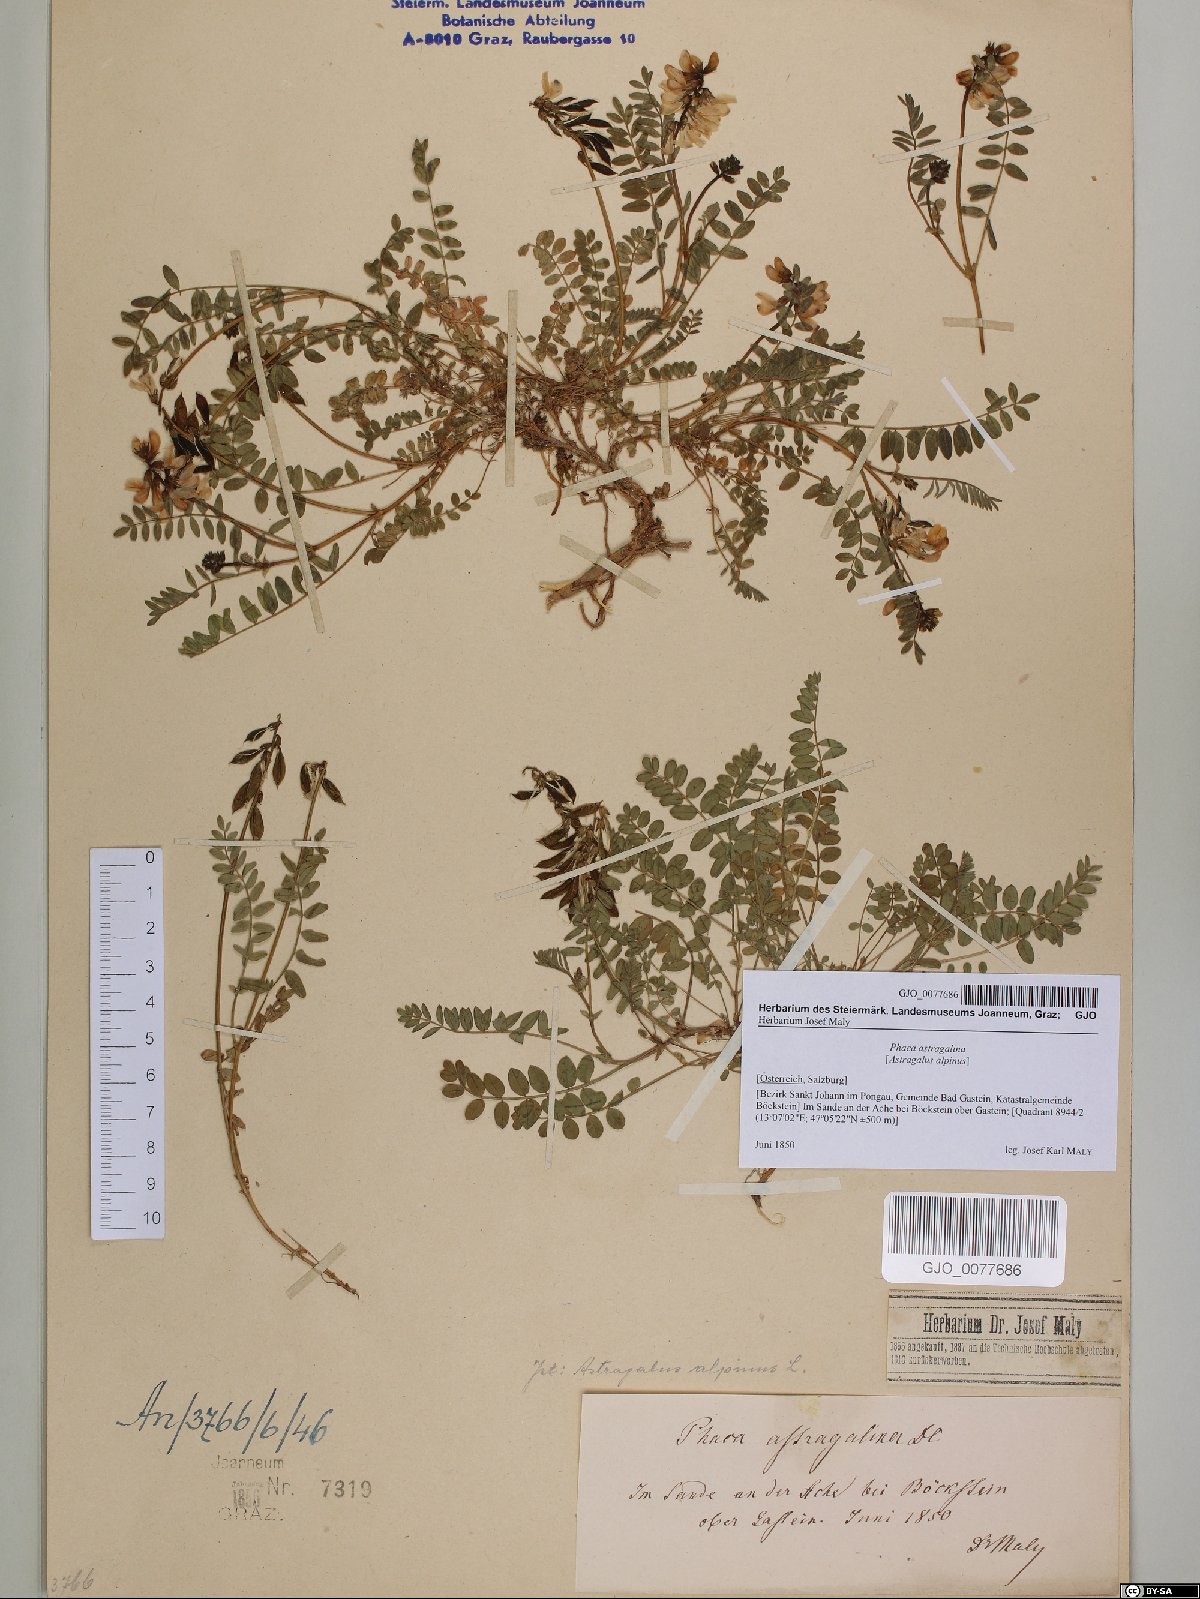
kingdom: Plantae
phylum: Tracheophyta
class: Magnoliopsida
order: Fabales
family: Fabaceae
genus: Astragalus
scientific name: Astragalus alpinus
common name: Alpine milk-vetch
